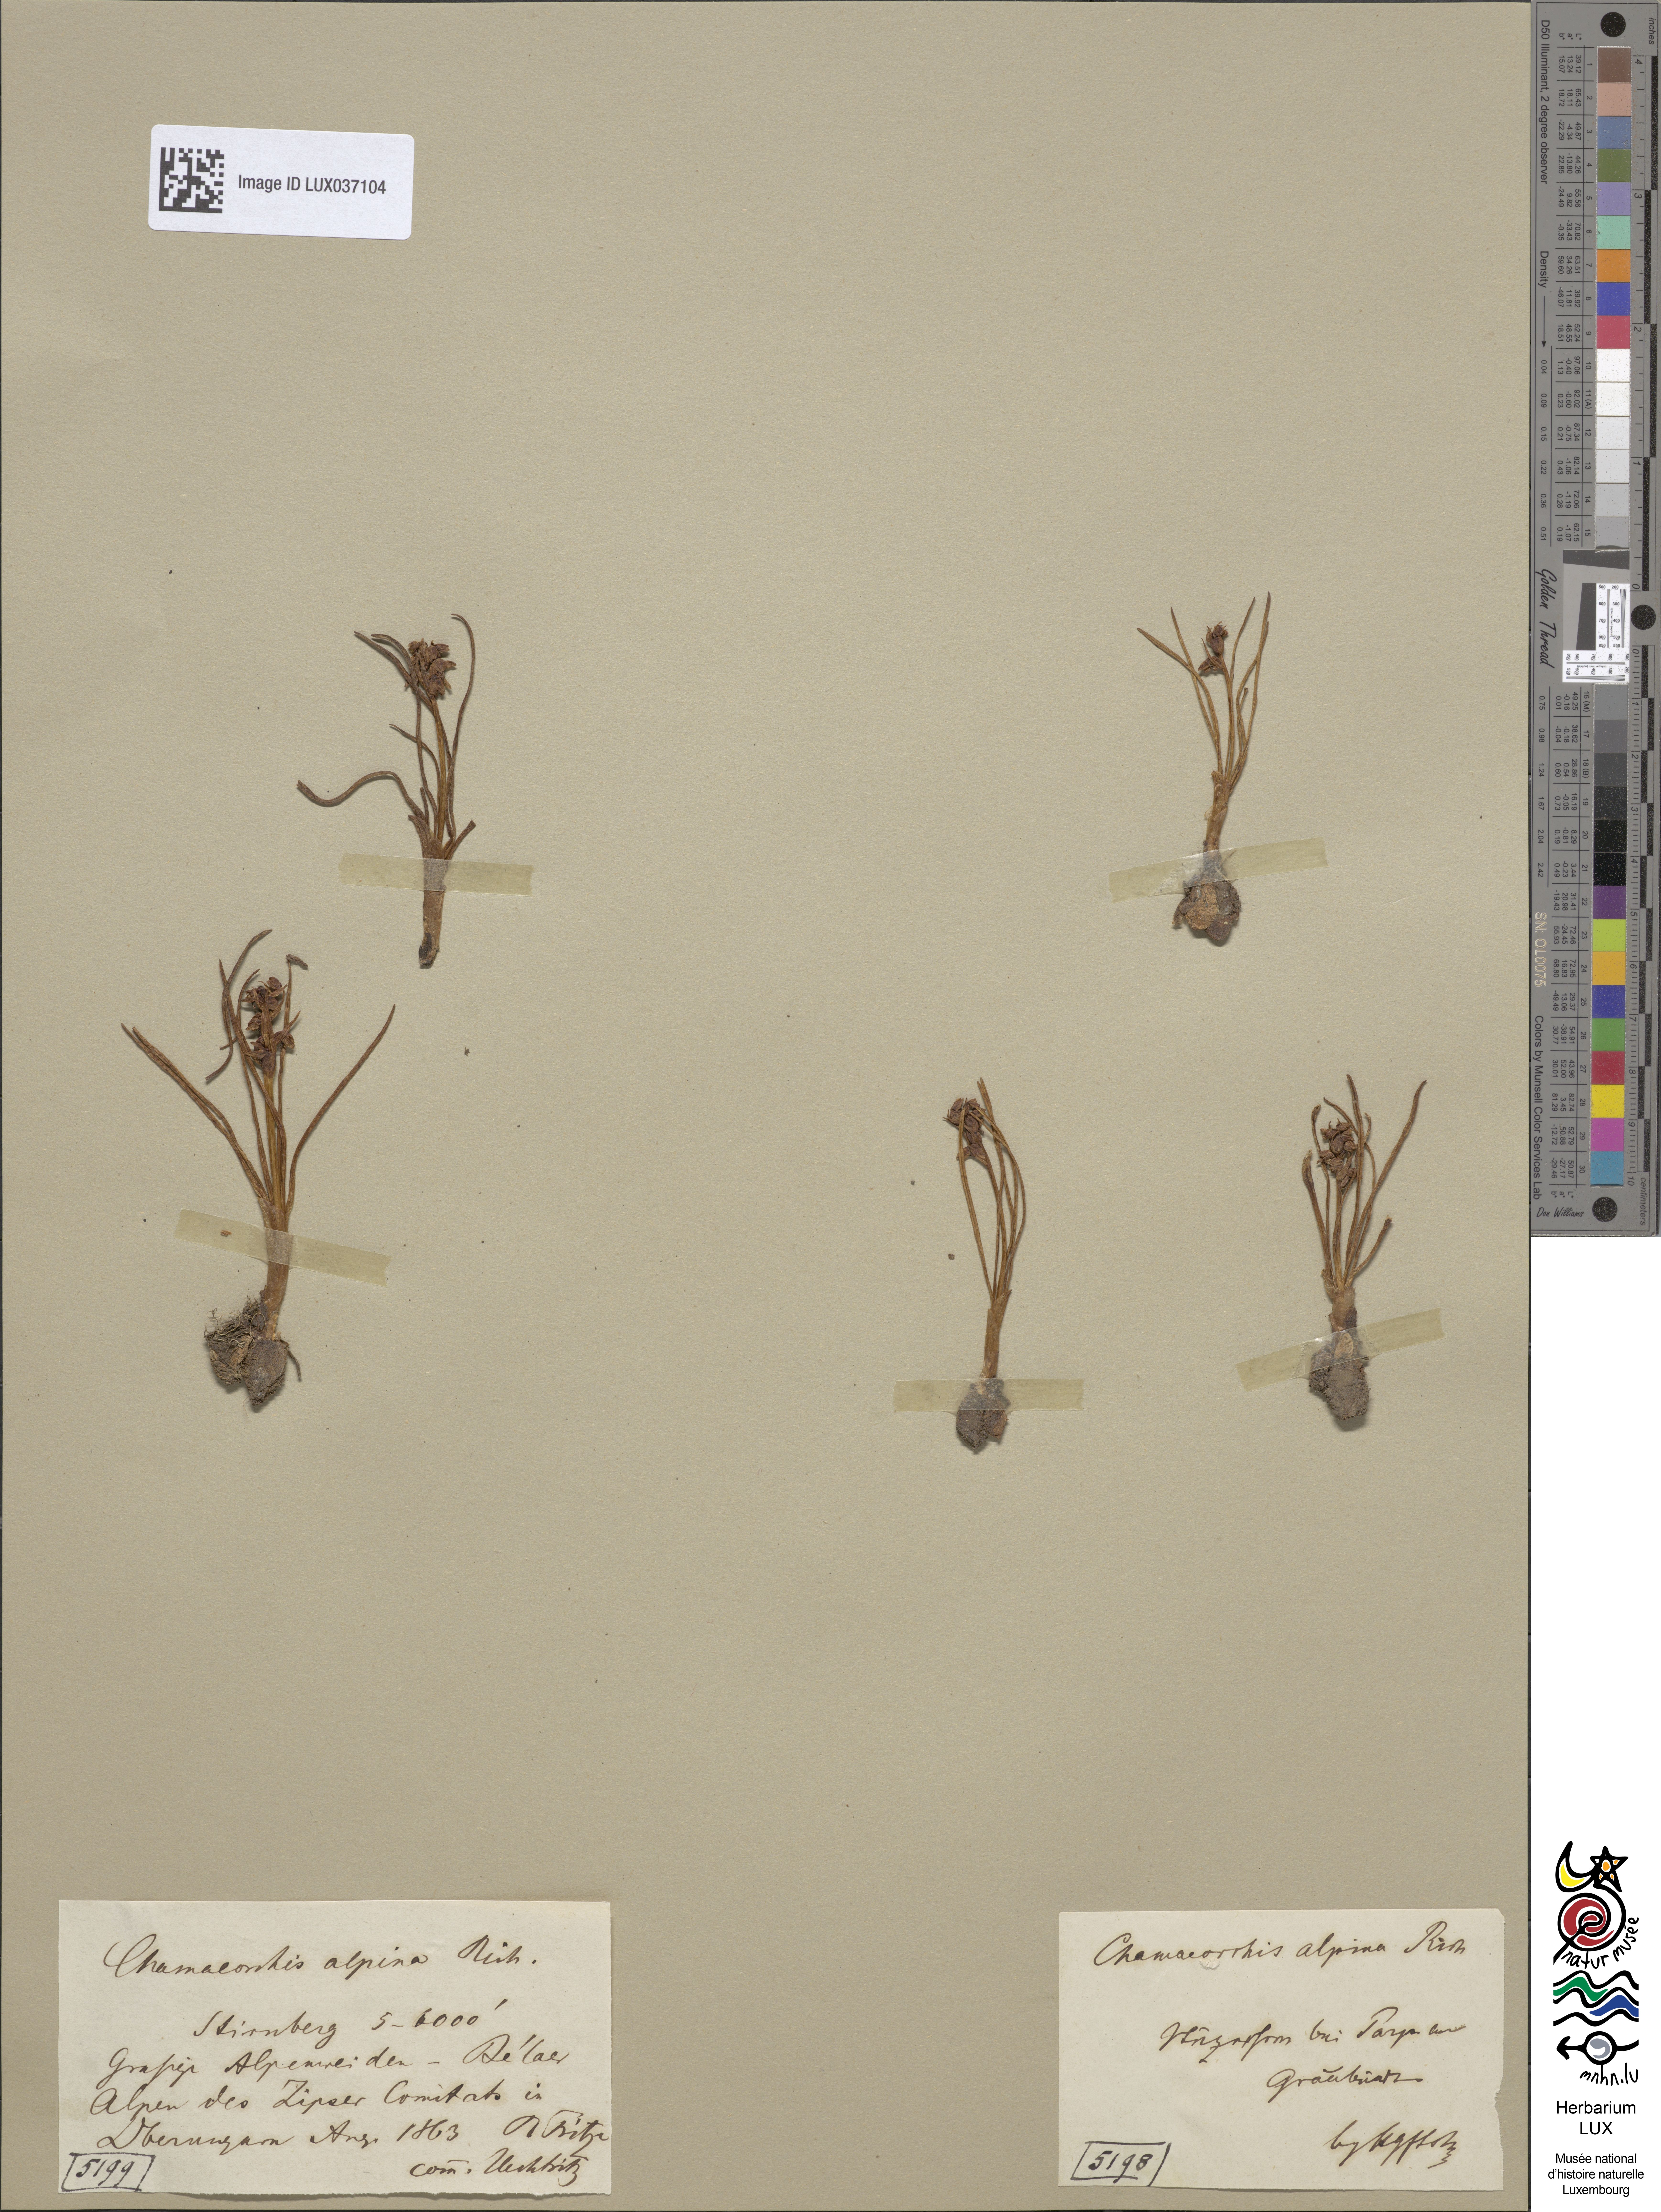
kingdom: Plantae
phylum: Tracheophyta
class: Liliopsida
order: Asparagales
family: Orchidaceae
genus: Chamorchis
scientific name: Chamorchis alpina
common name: Alpine chamorchis
